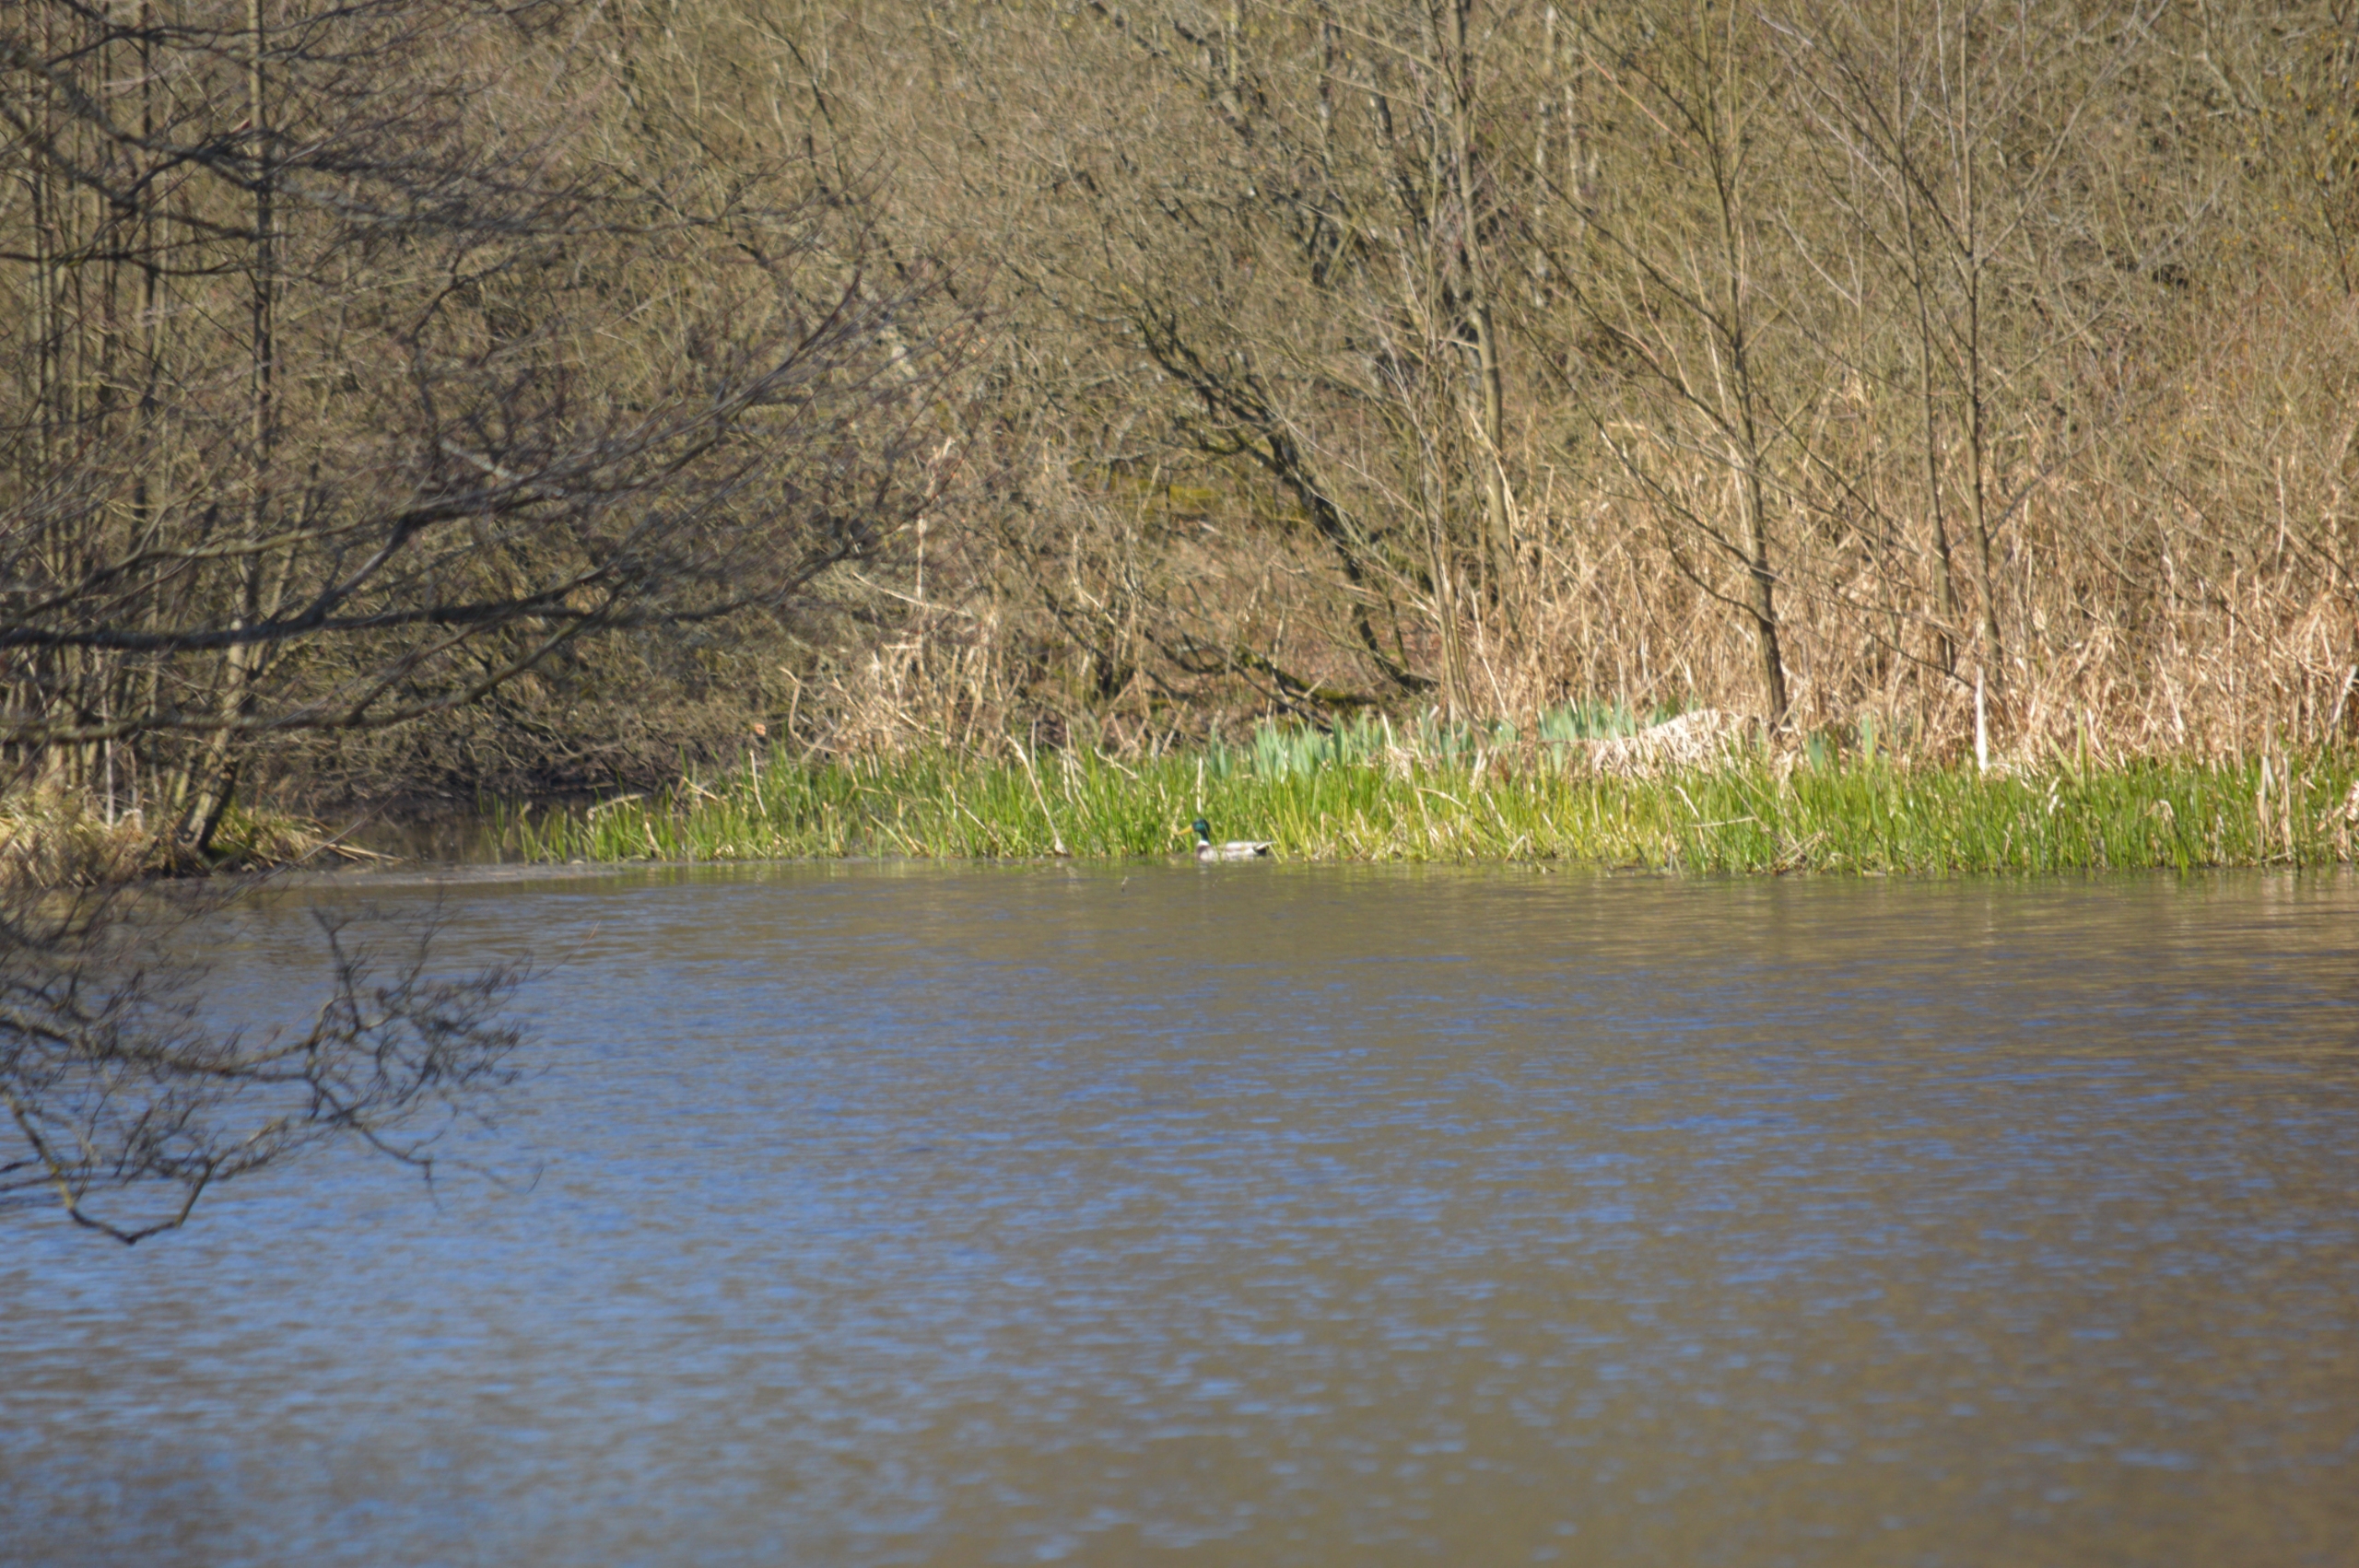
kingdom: Animalia
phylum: Chordata
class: Aves
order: Anseriformes
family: Anatidae
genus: Anas
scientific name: Anas platyrhynchos
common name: Gråand
